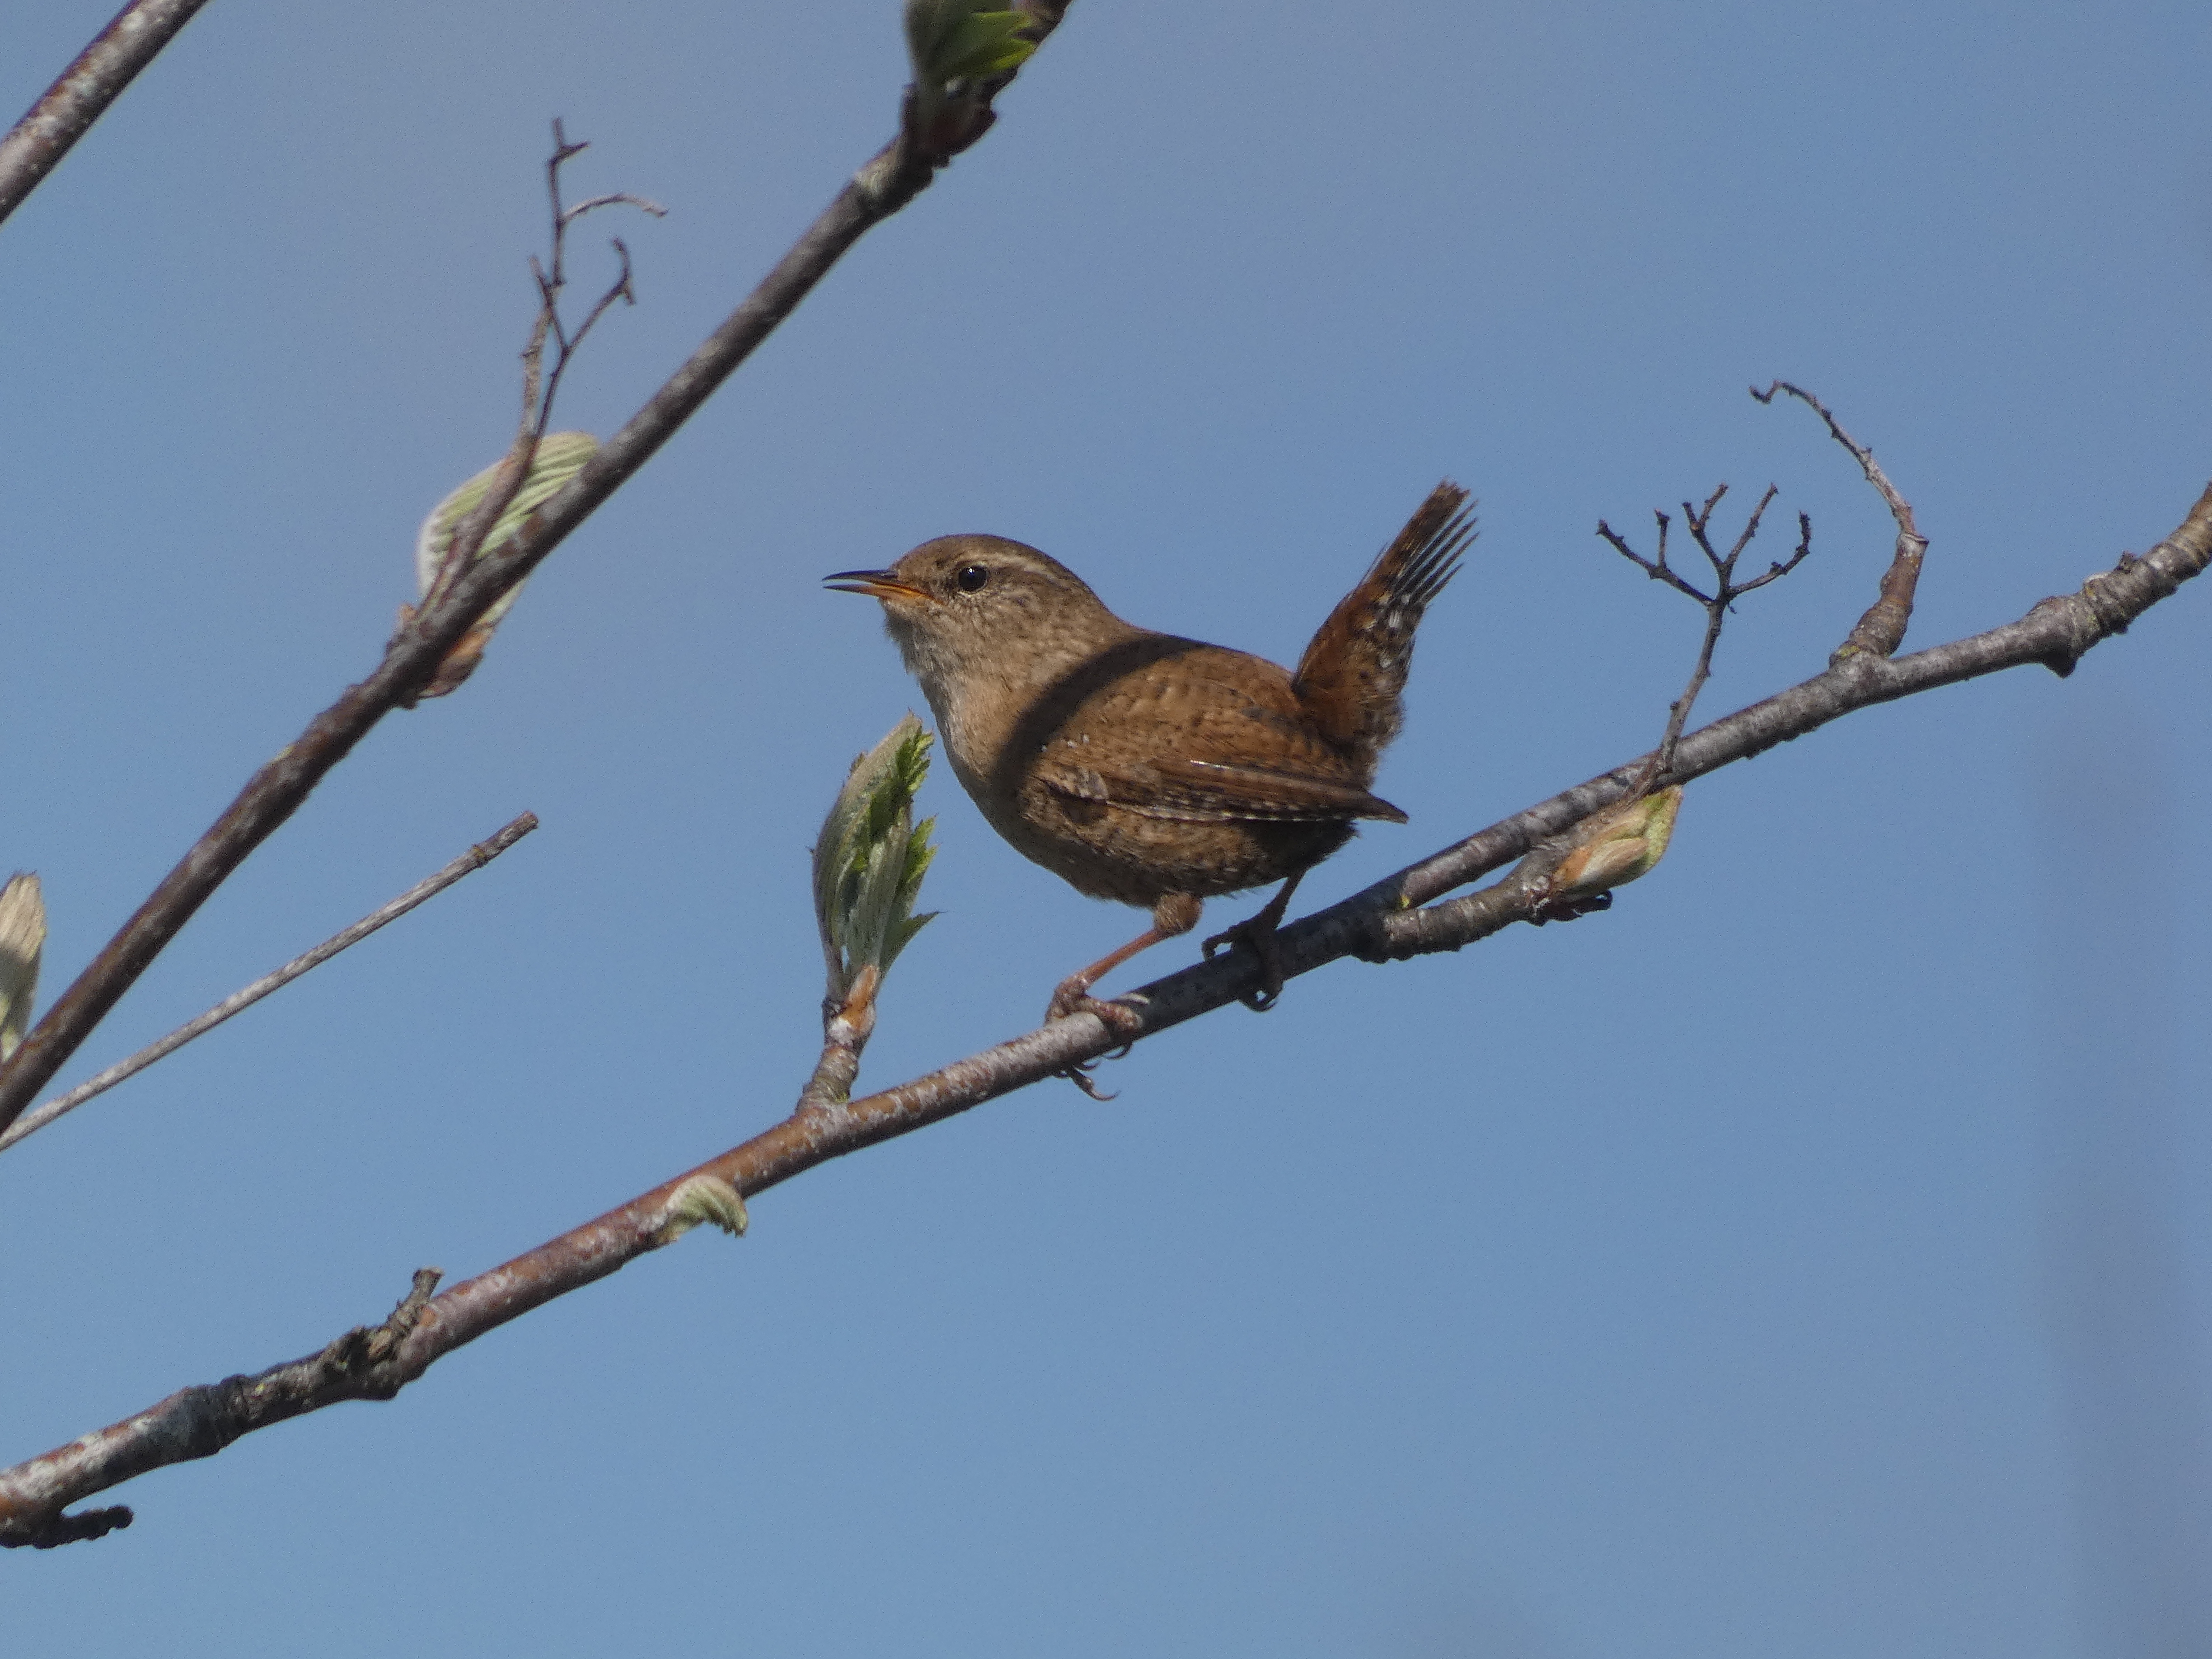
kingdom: Animalia
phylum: Chordata
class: Aves
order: Passeriformes
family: Troglodytidae
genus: Troglodytes
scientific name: Troglodytes troglodytes
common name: Gærdesmutte
